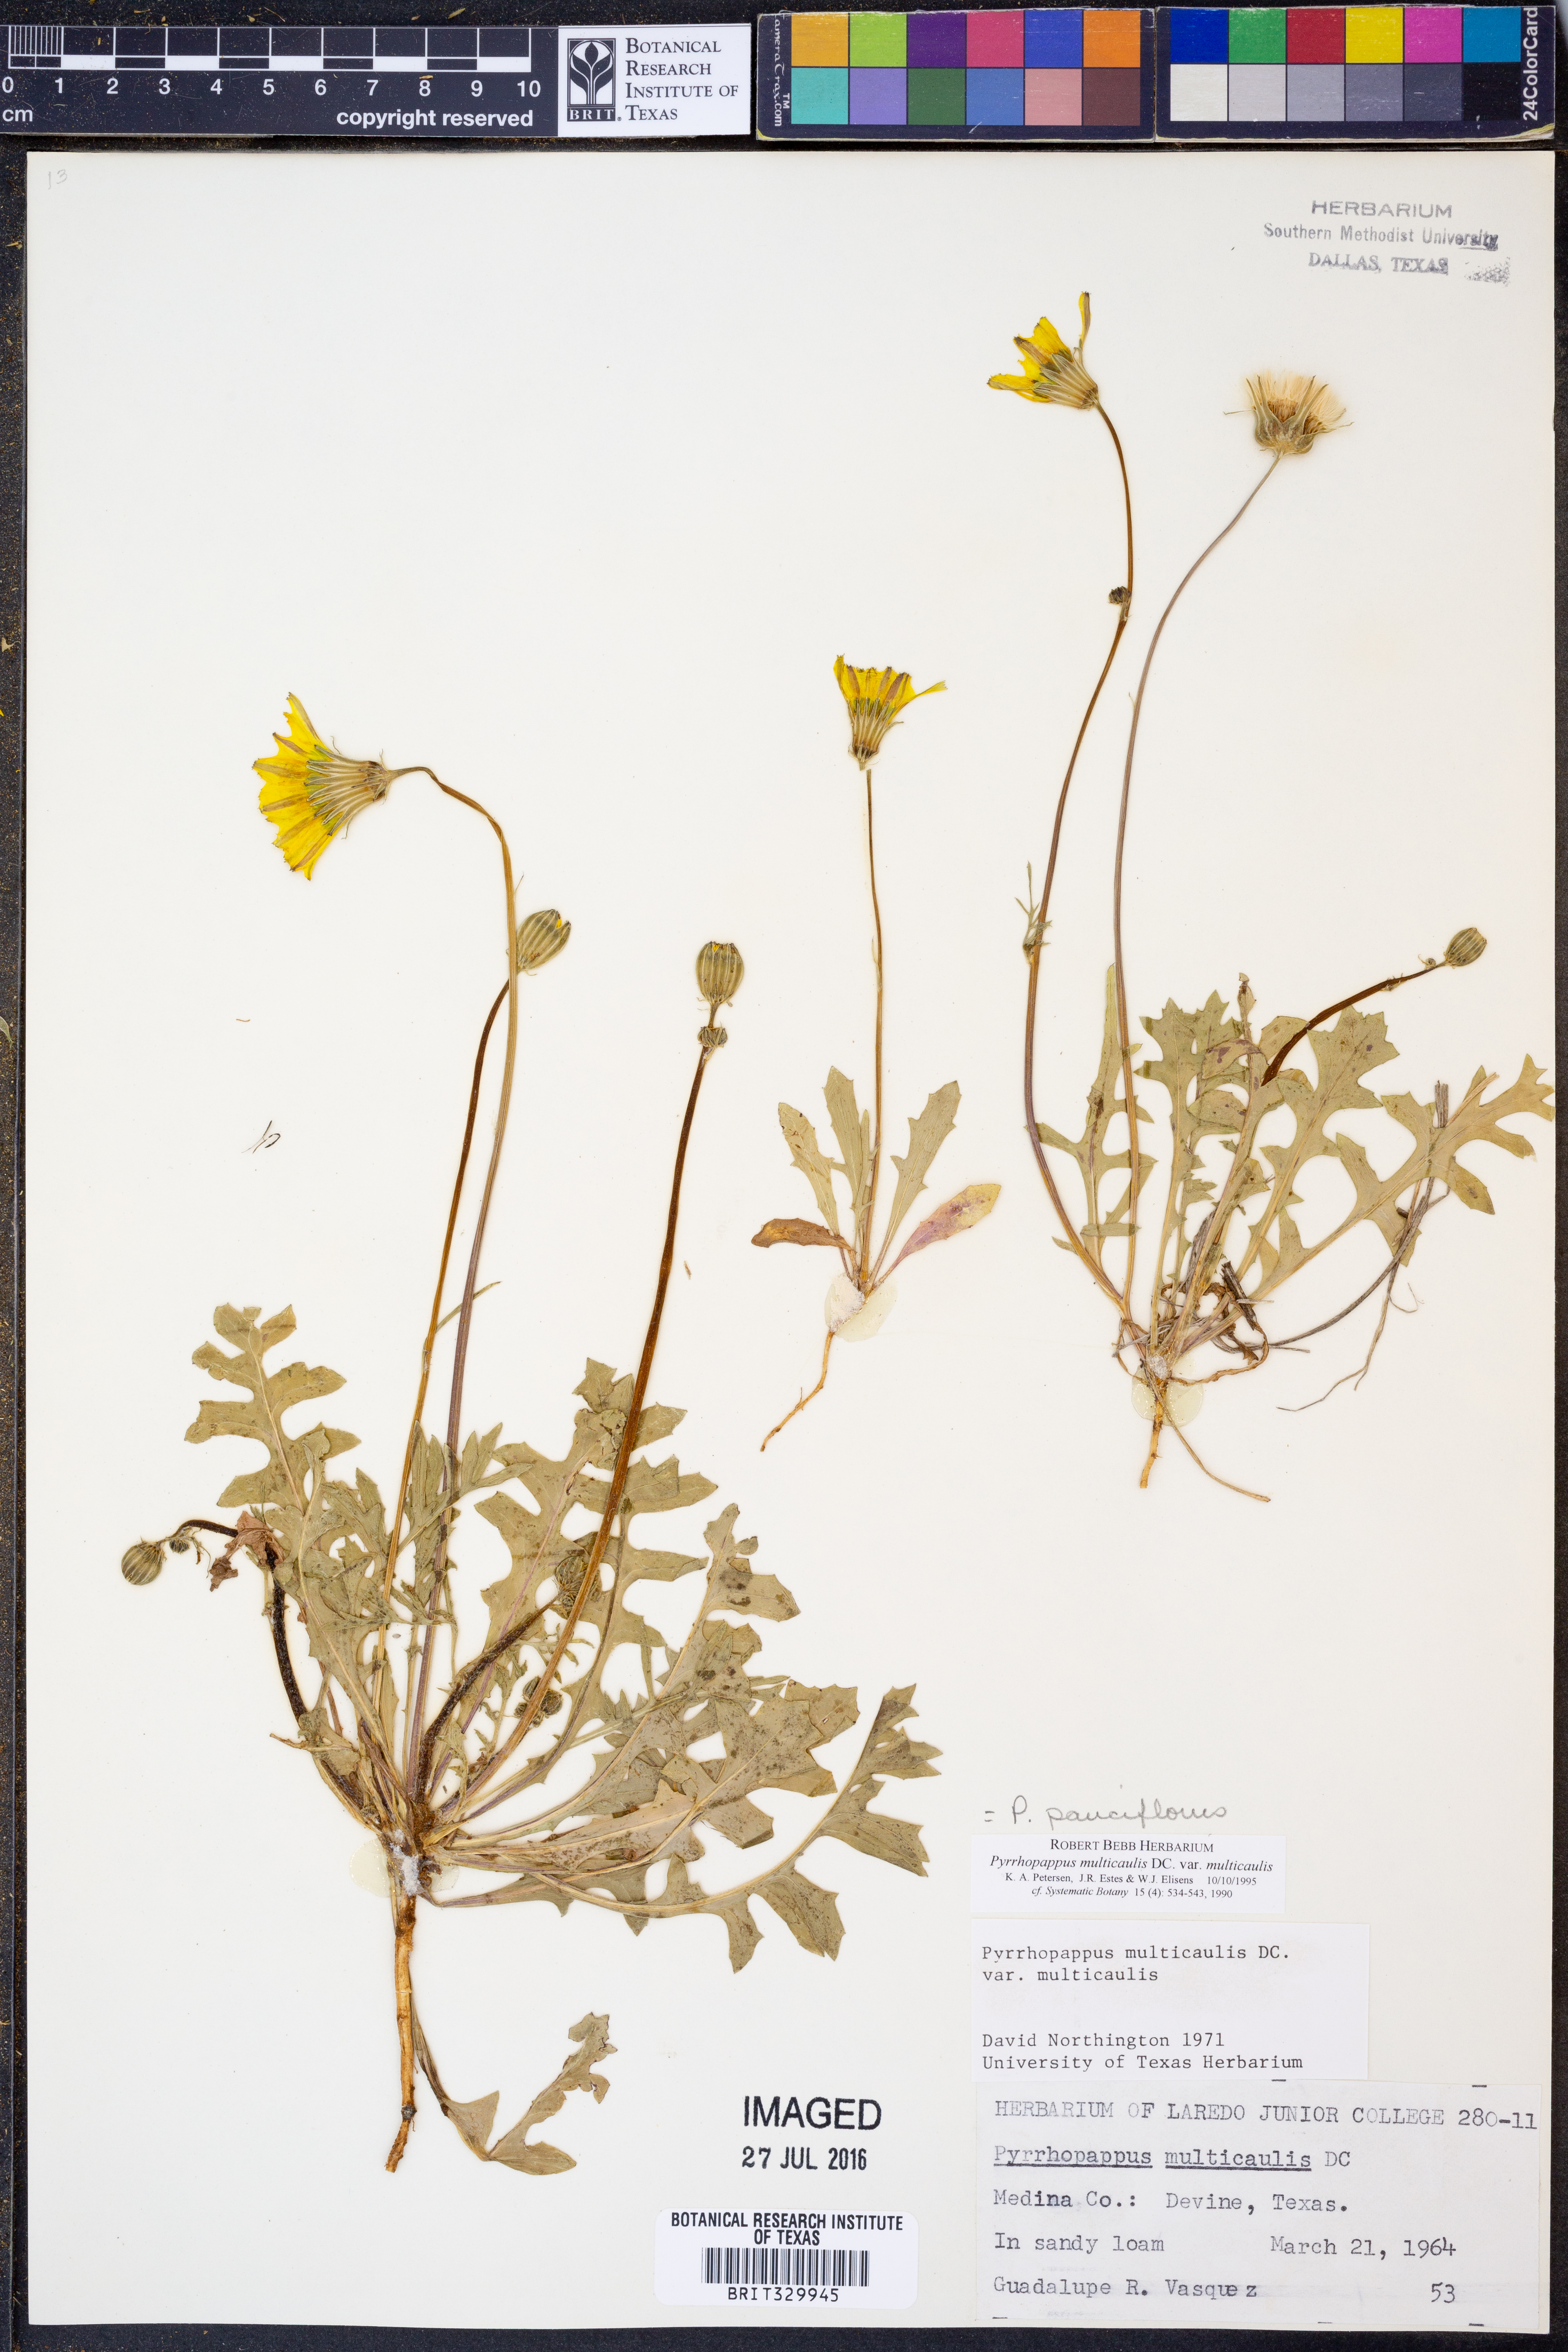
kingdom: Plantae
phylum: Tracheophyta
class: Magnoliopsida
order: Asterales
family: Asteraceae
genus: Pyrrhopappus
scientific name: Pyrrhopappus pauciflorus
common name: Texas false dandelion
